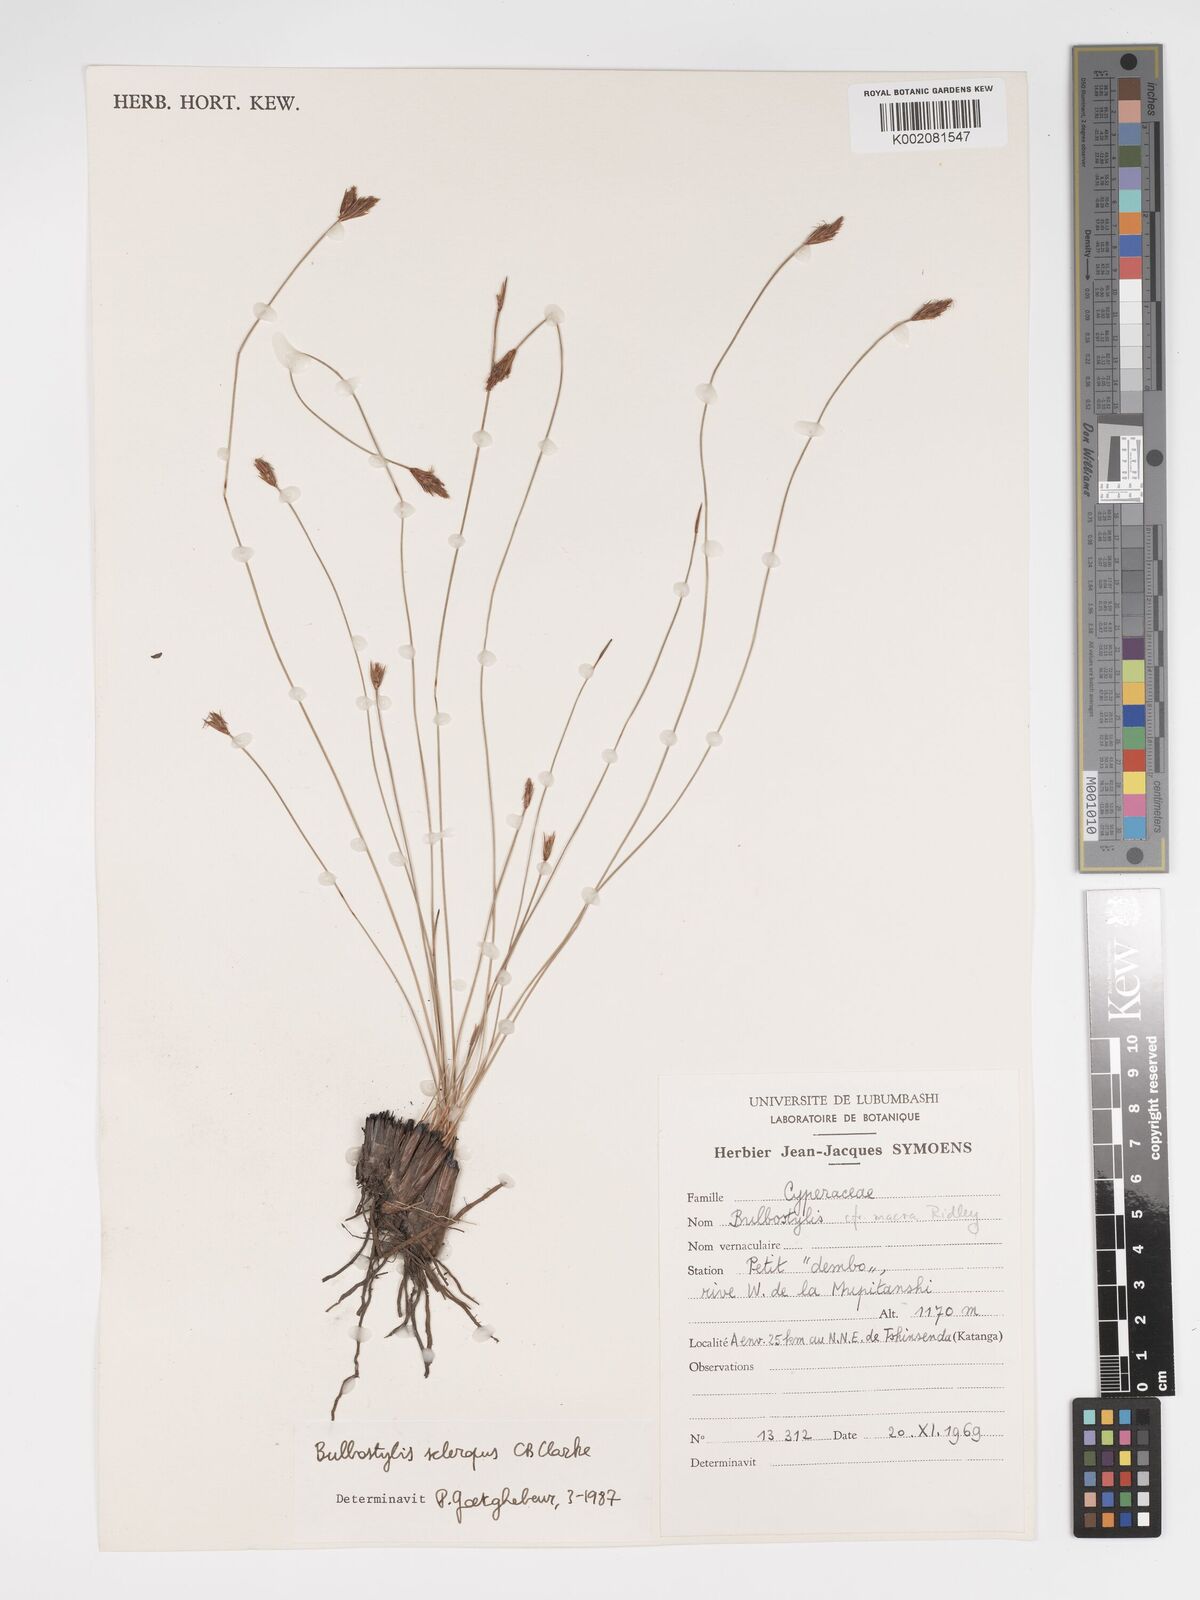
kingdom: Plantae
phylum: Tracheophyta
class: Liliopsida
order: Poales
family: Cyperaceae
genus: Bulbostylis
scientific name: Bulbostylis schoenoides
